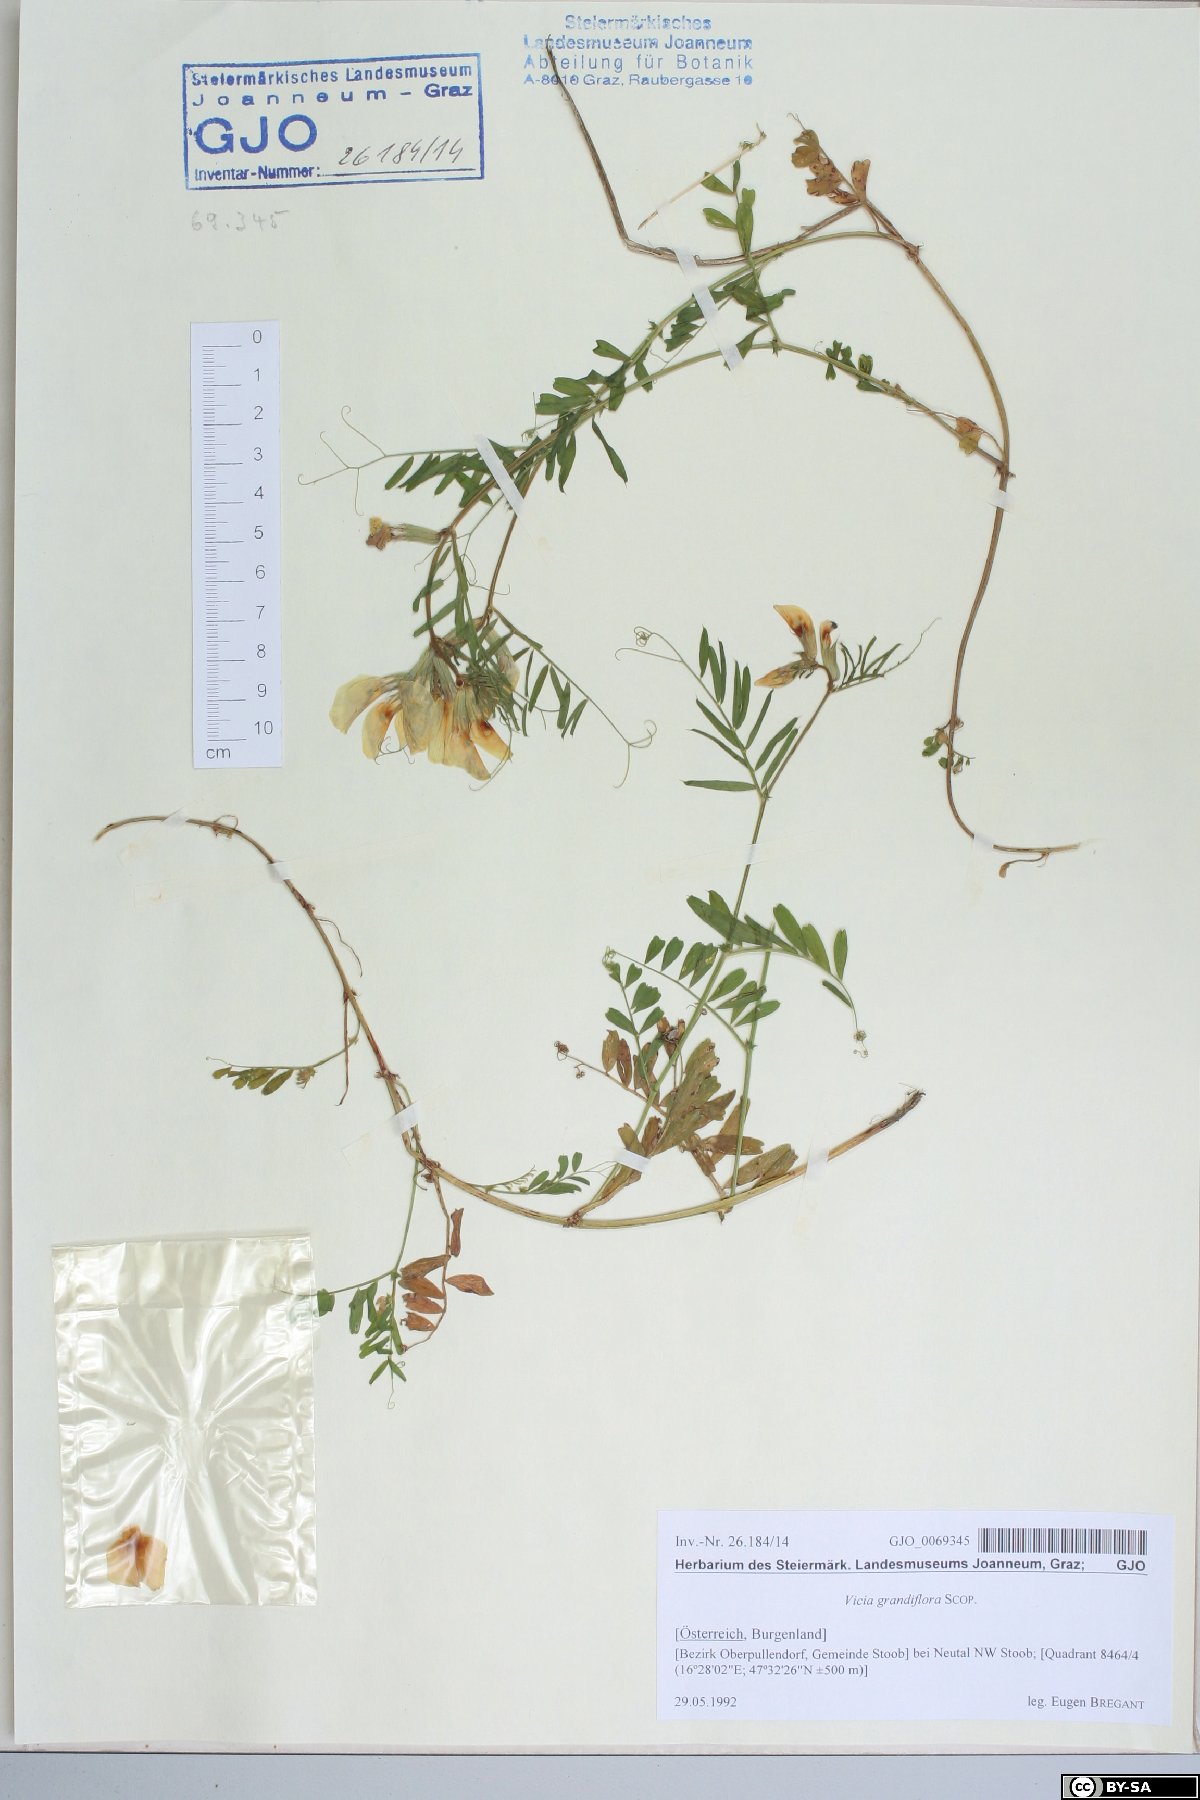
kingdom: Plantae
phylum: Tracheophyta
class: Magnoliopsida
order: Fabales
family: Fabaceae
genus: Vicia
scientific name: Vicia grandiflora
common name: Large yellow vetch
